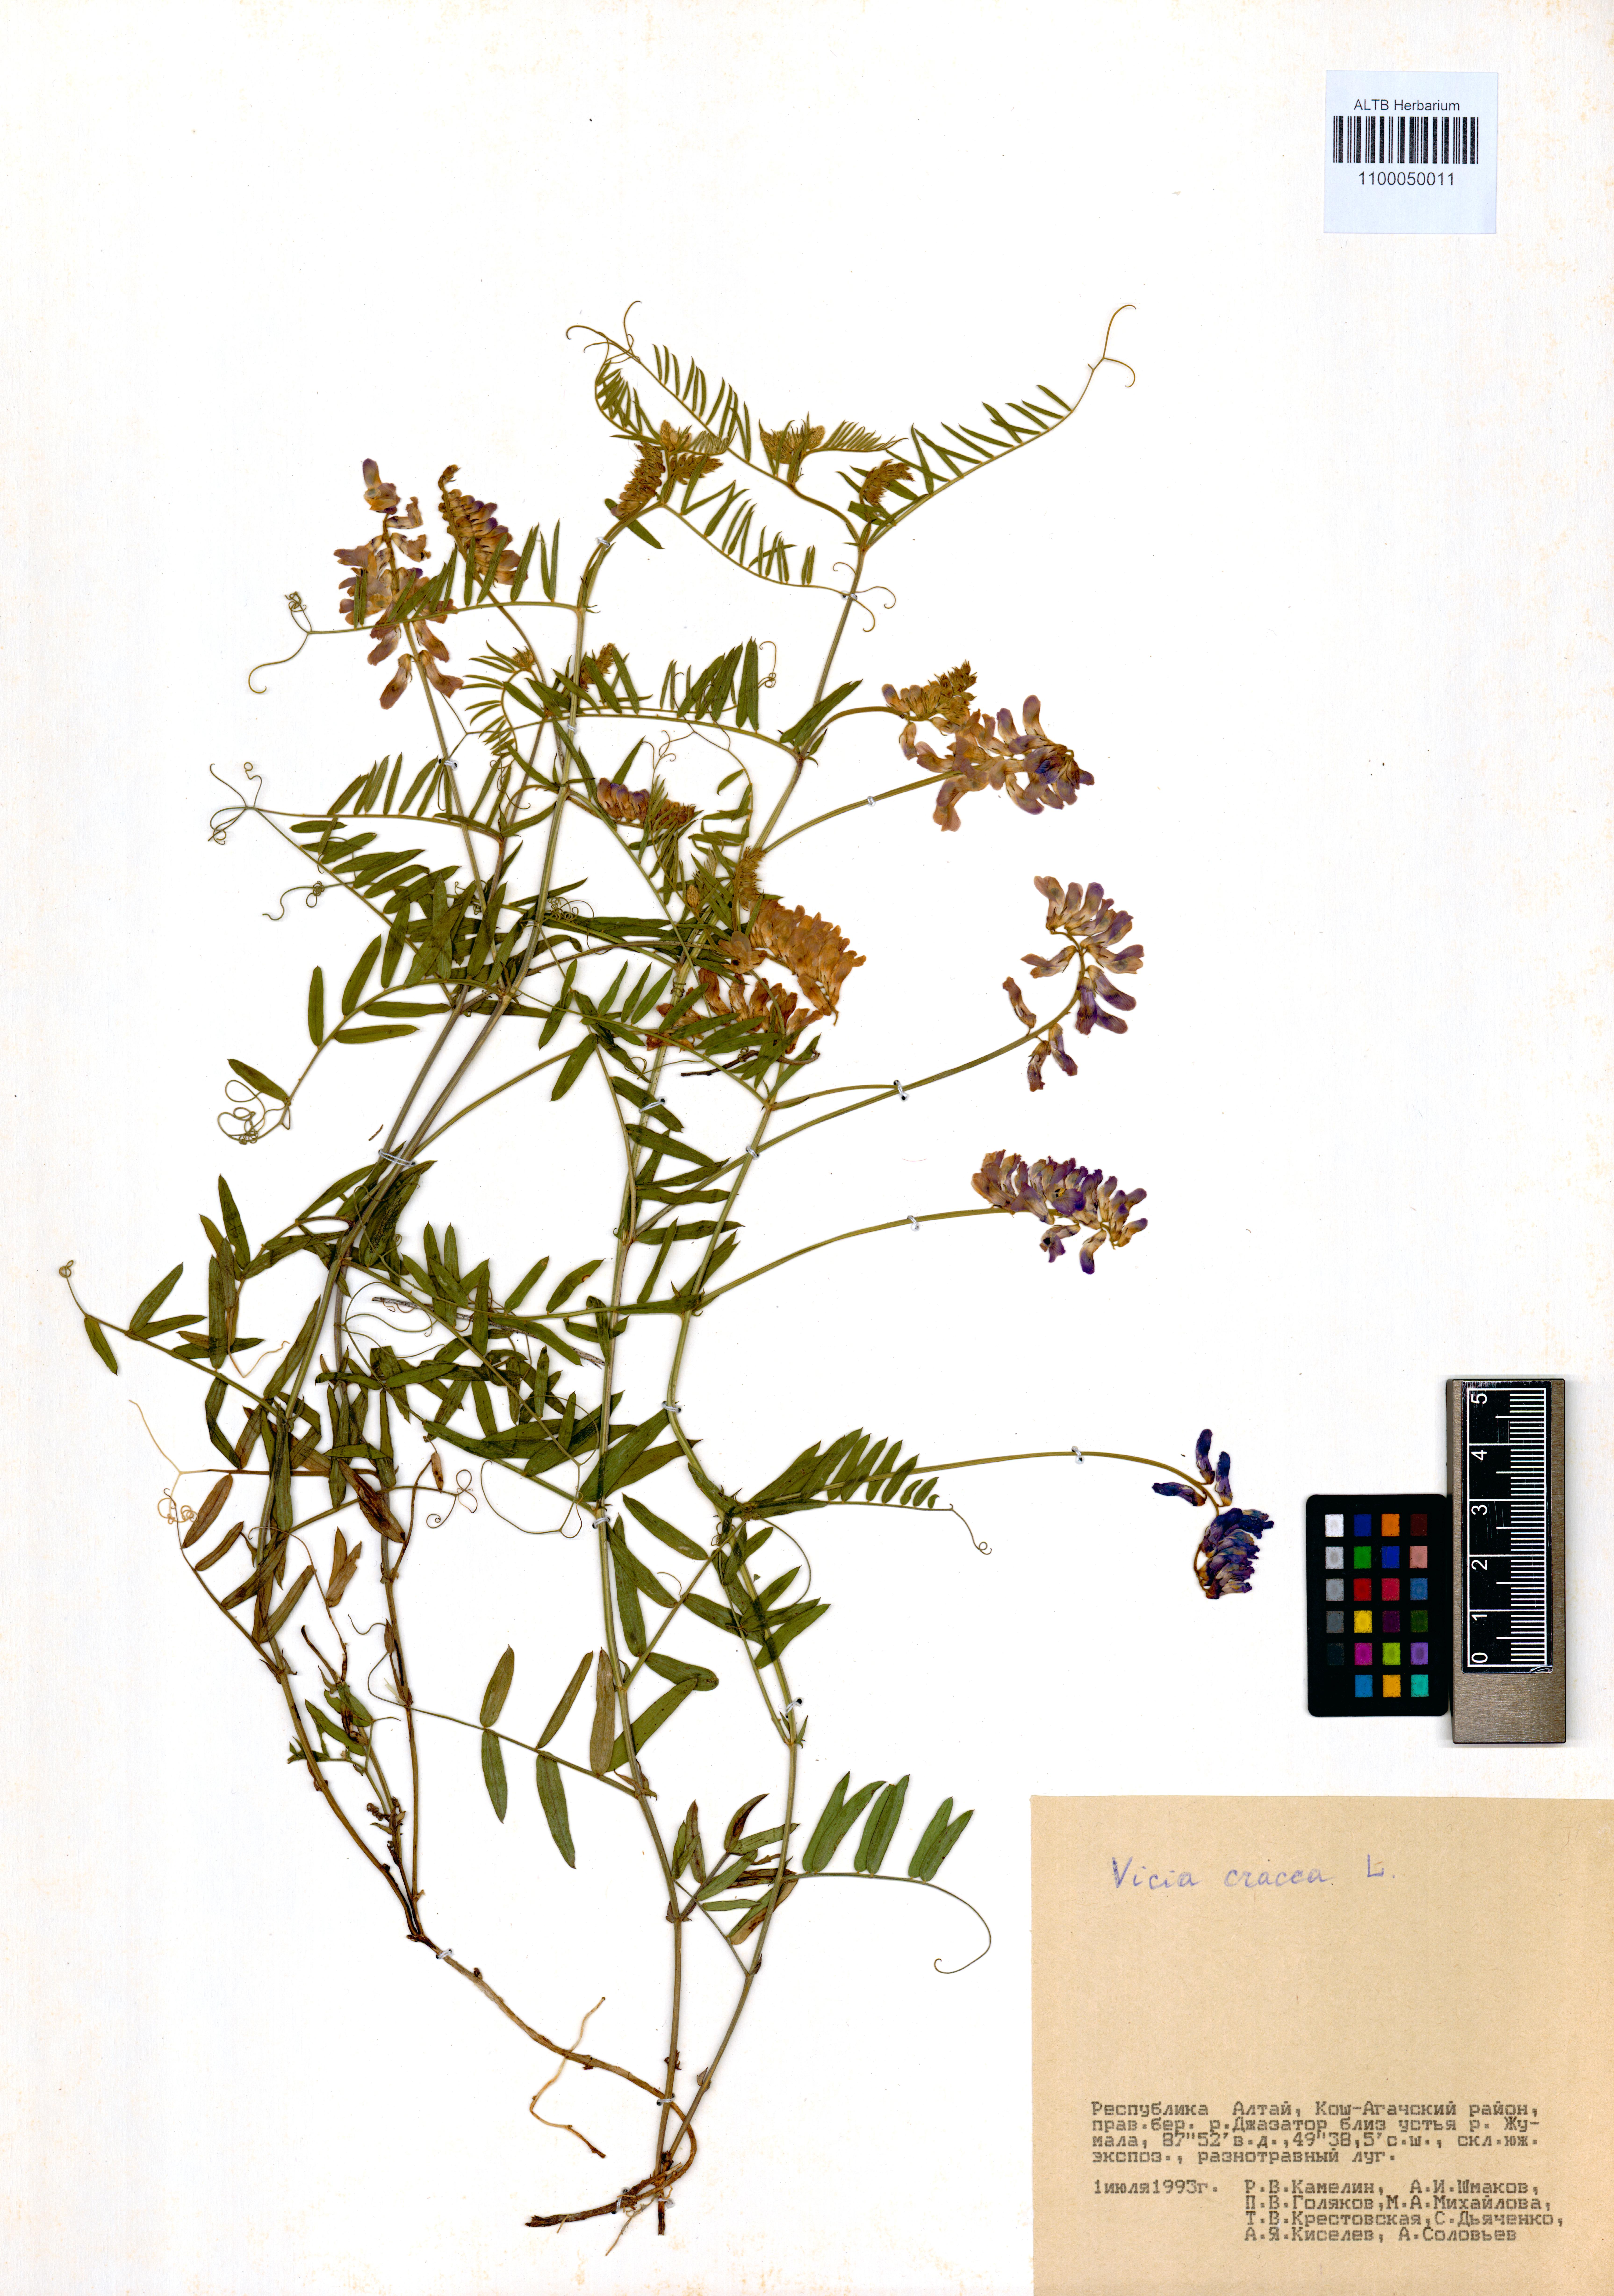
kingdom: Plantae
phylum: Tracheophyta
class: Magnoliopsida
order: Fabales
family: Fabaceae
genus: Vicia
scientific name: Vicia cracca
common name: Bird vetch
